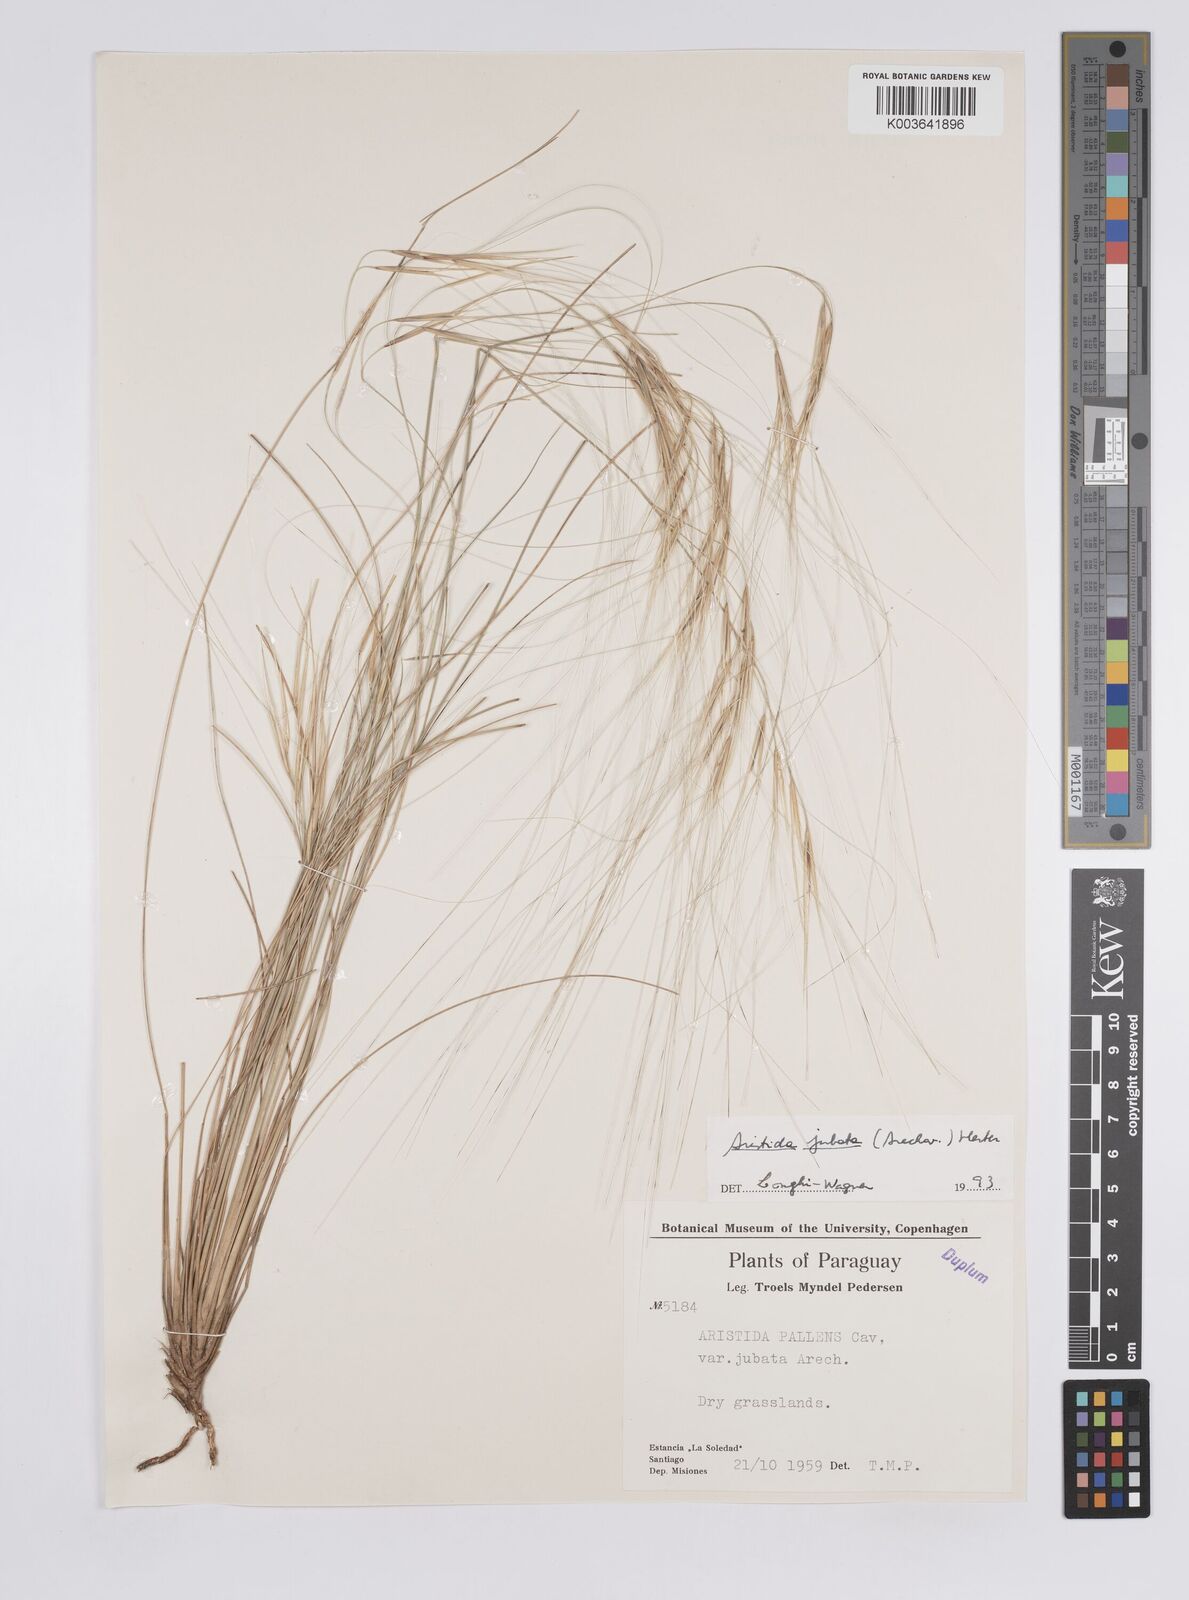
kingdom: Plantae
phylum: Tracheophyta
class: Liliopsida
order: Poales
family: Poaceae
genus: Aristida
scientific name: Aristida jubata
